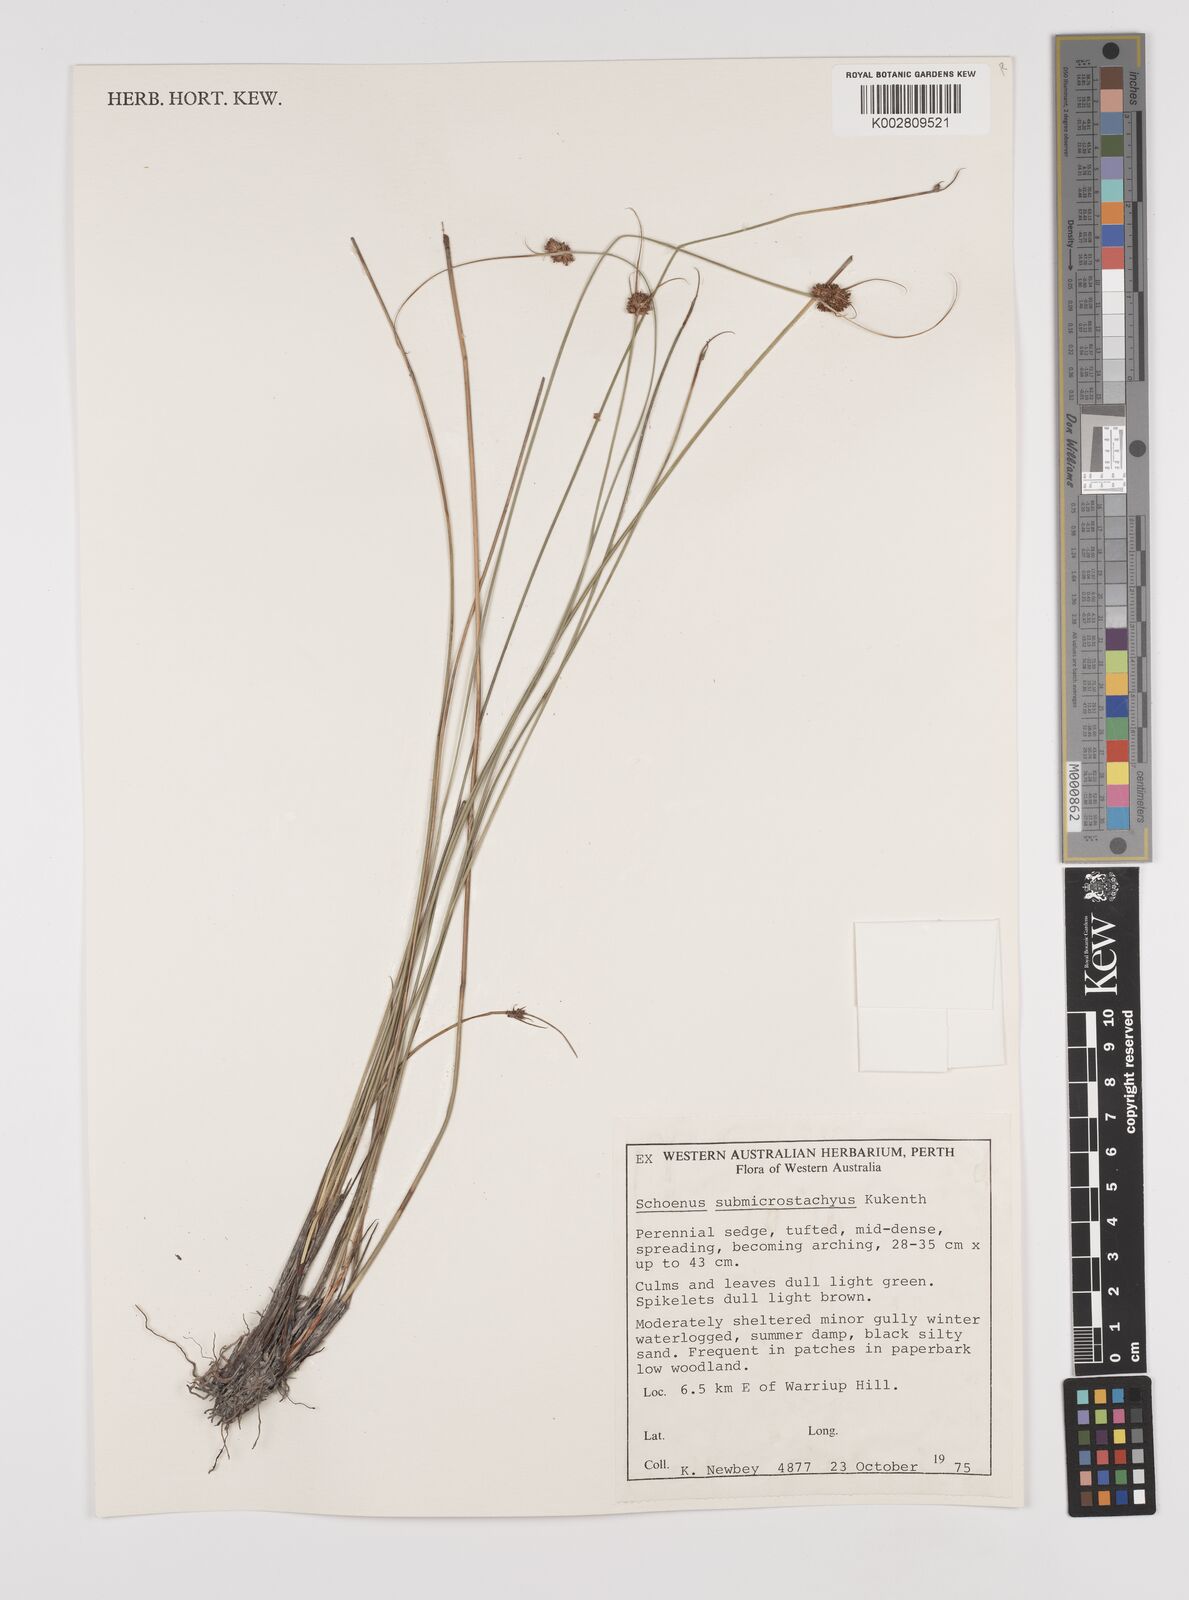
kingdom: Plantae
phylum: Tracheophyta
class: Liliopsida
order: Poales
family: Cyperaceae
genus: Schoenus
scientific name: Schoenus submicrostachyus
